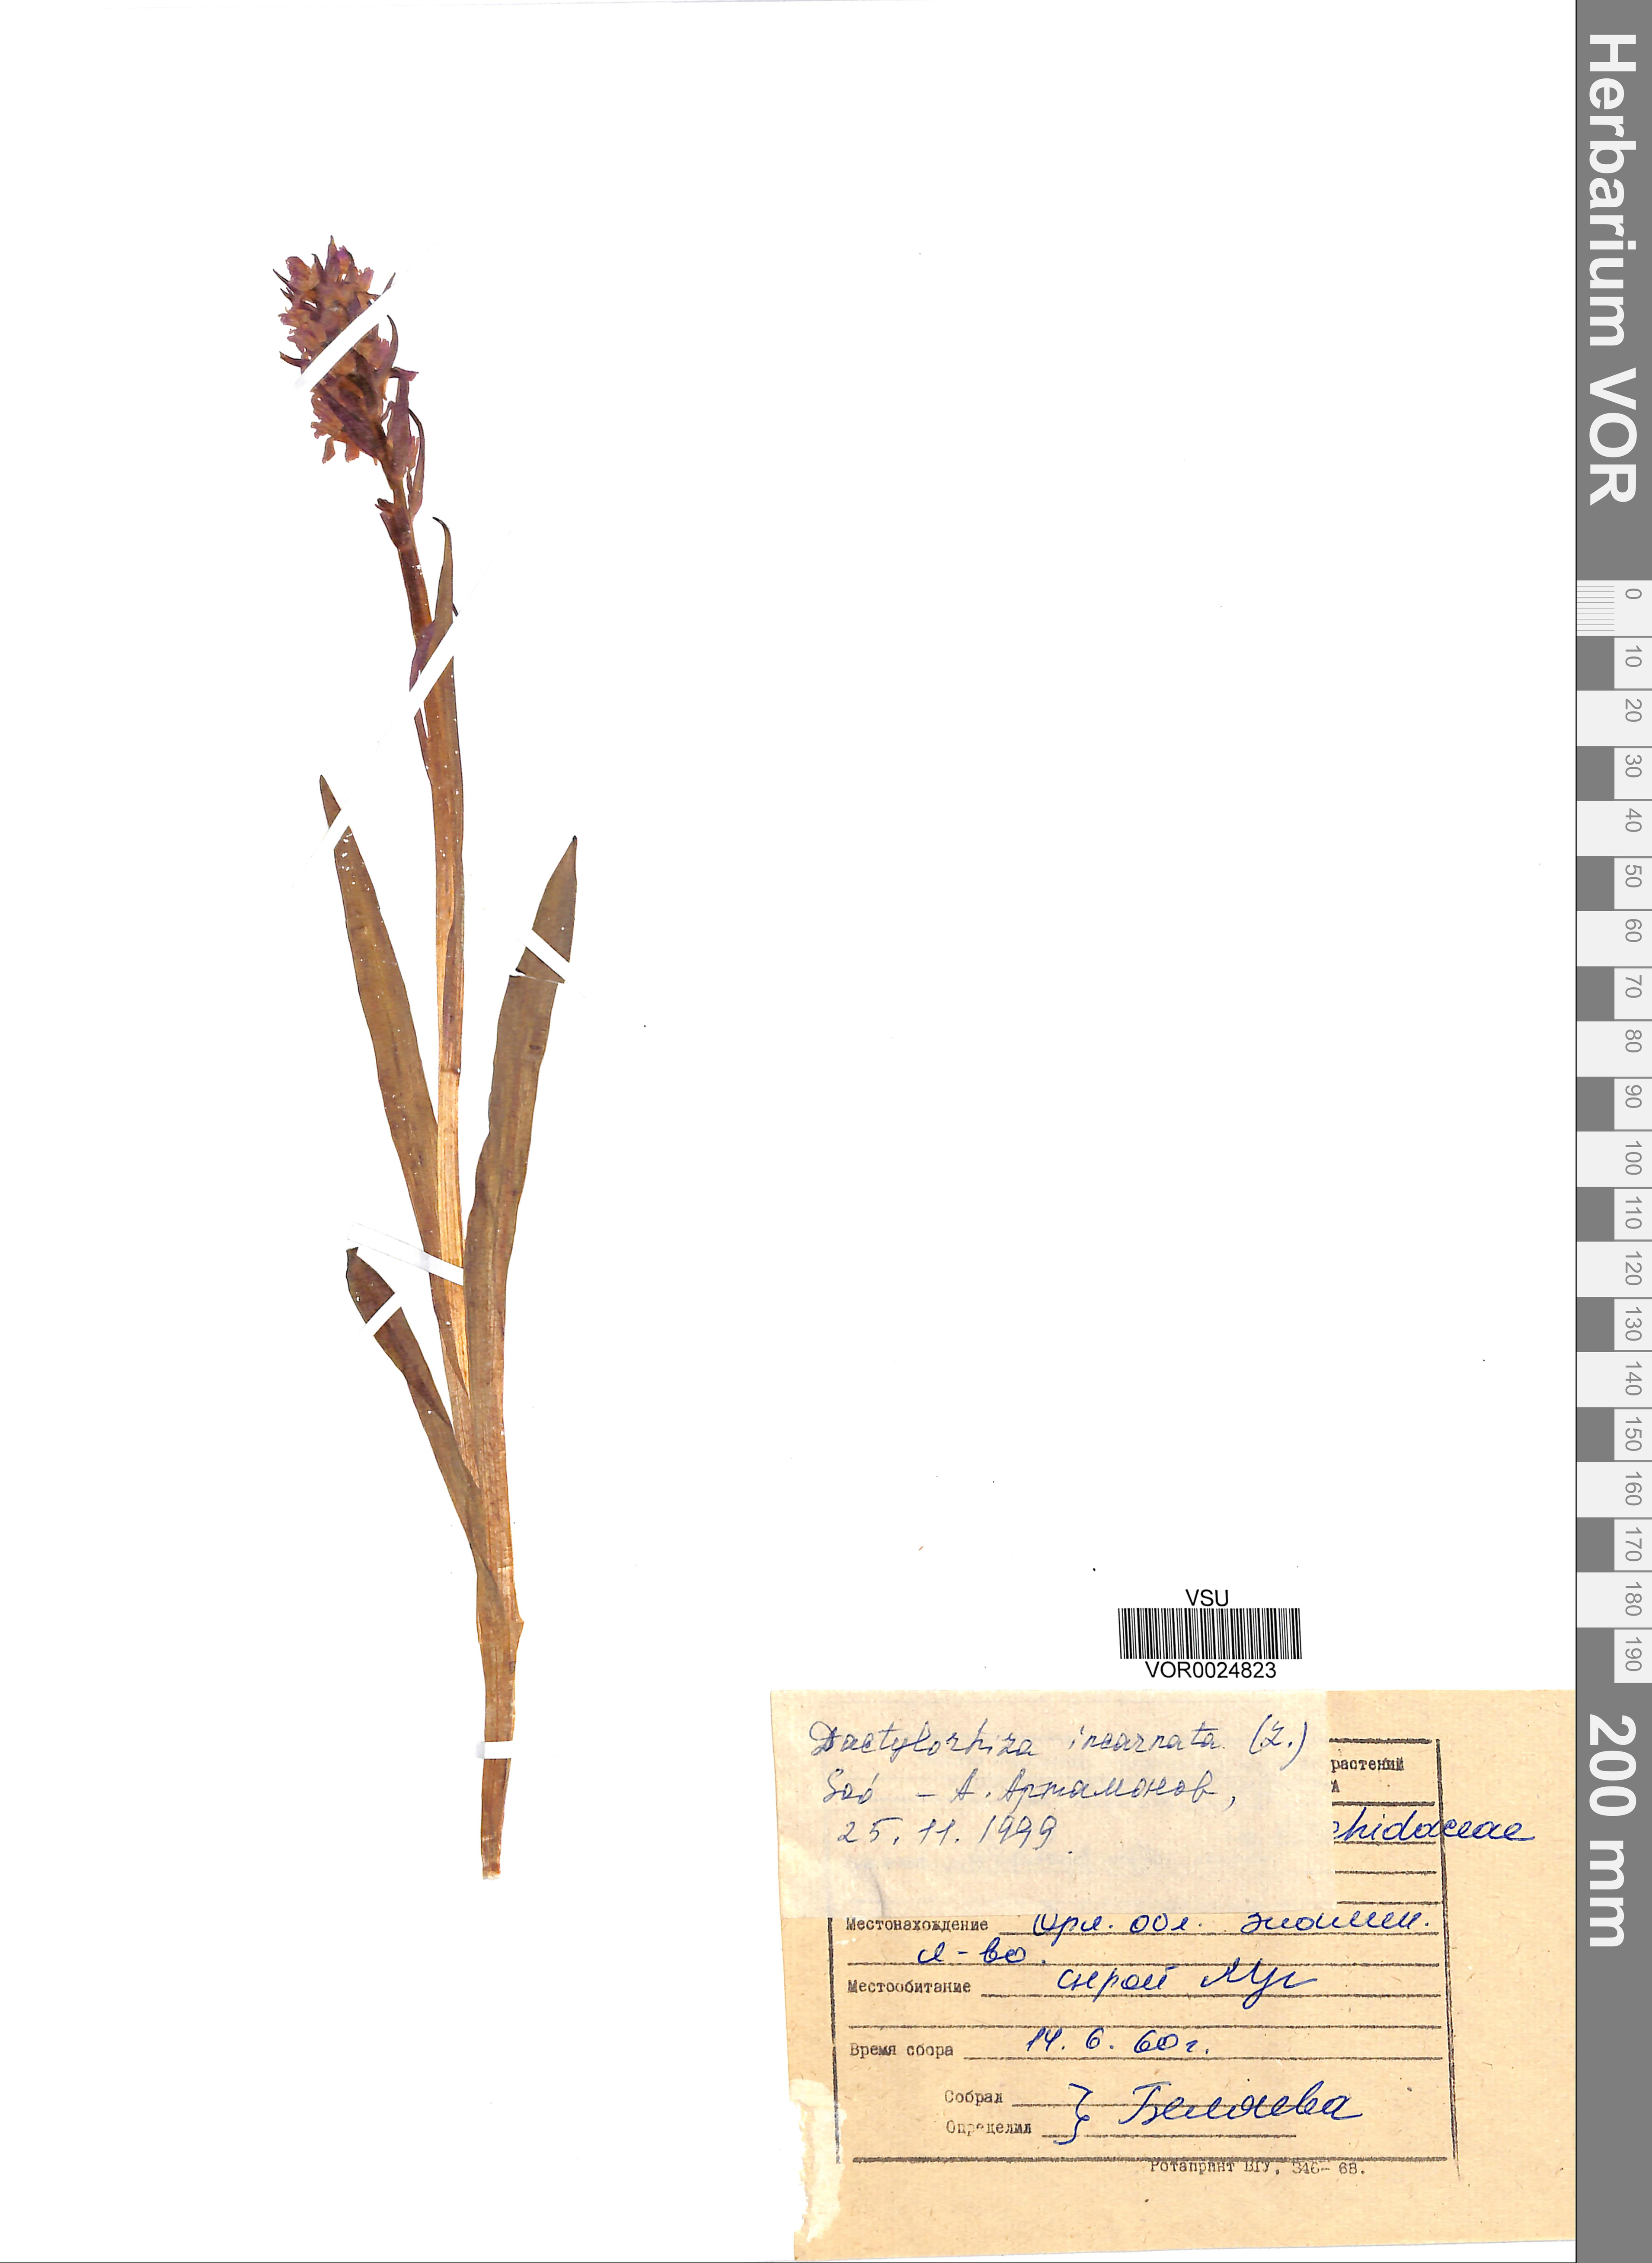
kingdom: Plantae
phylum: Tracheophyta
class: Liliopsida
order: Asparagales
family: Orchidaceae
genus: Dactylorhiza
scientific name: Dactylorhiza incarnata
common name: Early marsh-orchid
